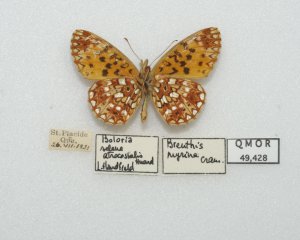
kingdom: Animalia
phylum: Arthropoda
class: Insecta
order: Lepidoptera
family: Nymphalidae
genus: Boloria
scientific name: Boloria selene
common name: Silver-bordered Fritillary
